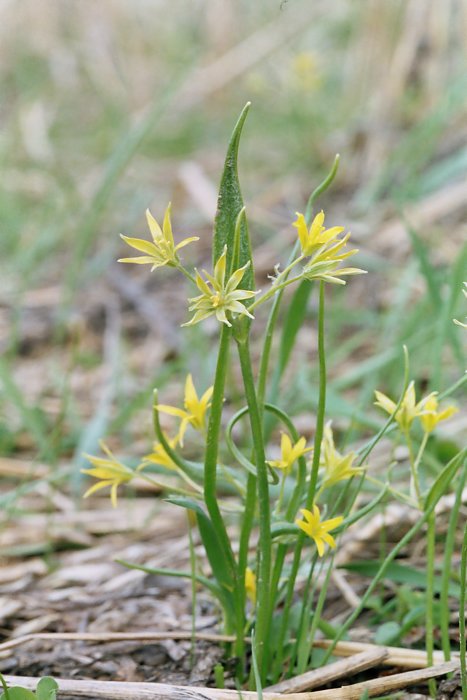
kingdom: Plantae
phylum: Tracheophyta
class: Liliopsida
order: Liliales
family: Liliaceae
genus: Gagea
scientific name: Gagea lutea
